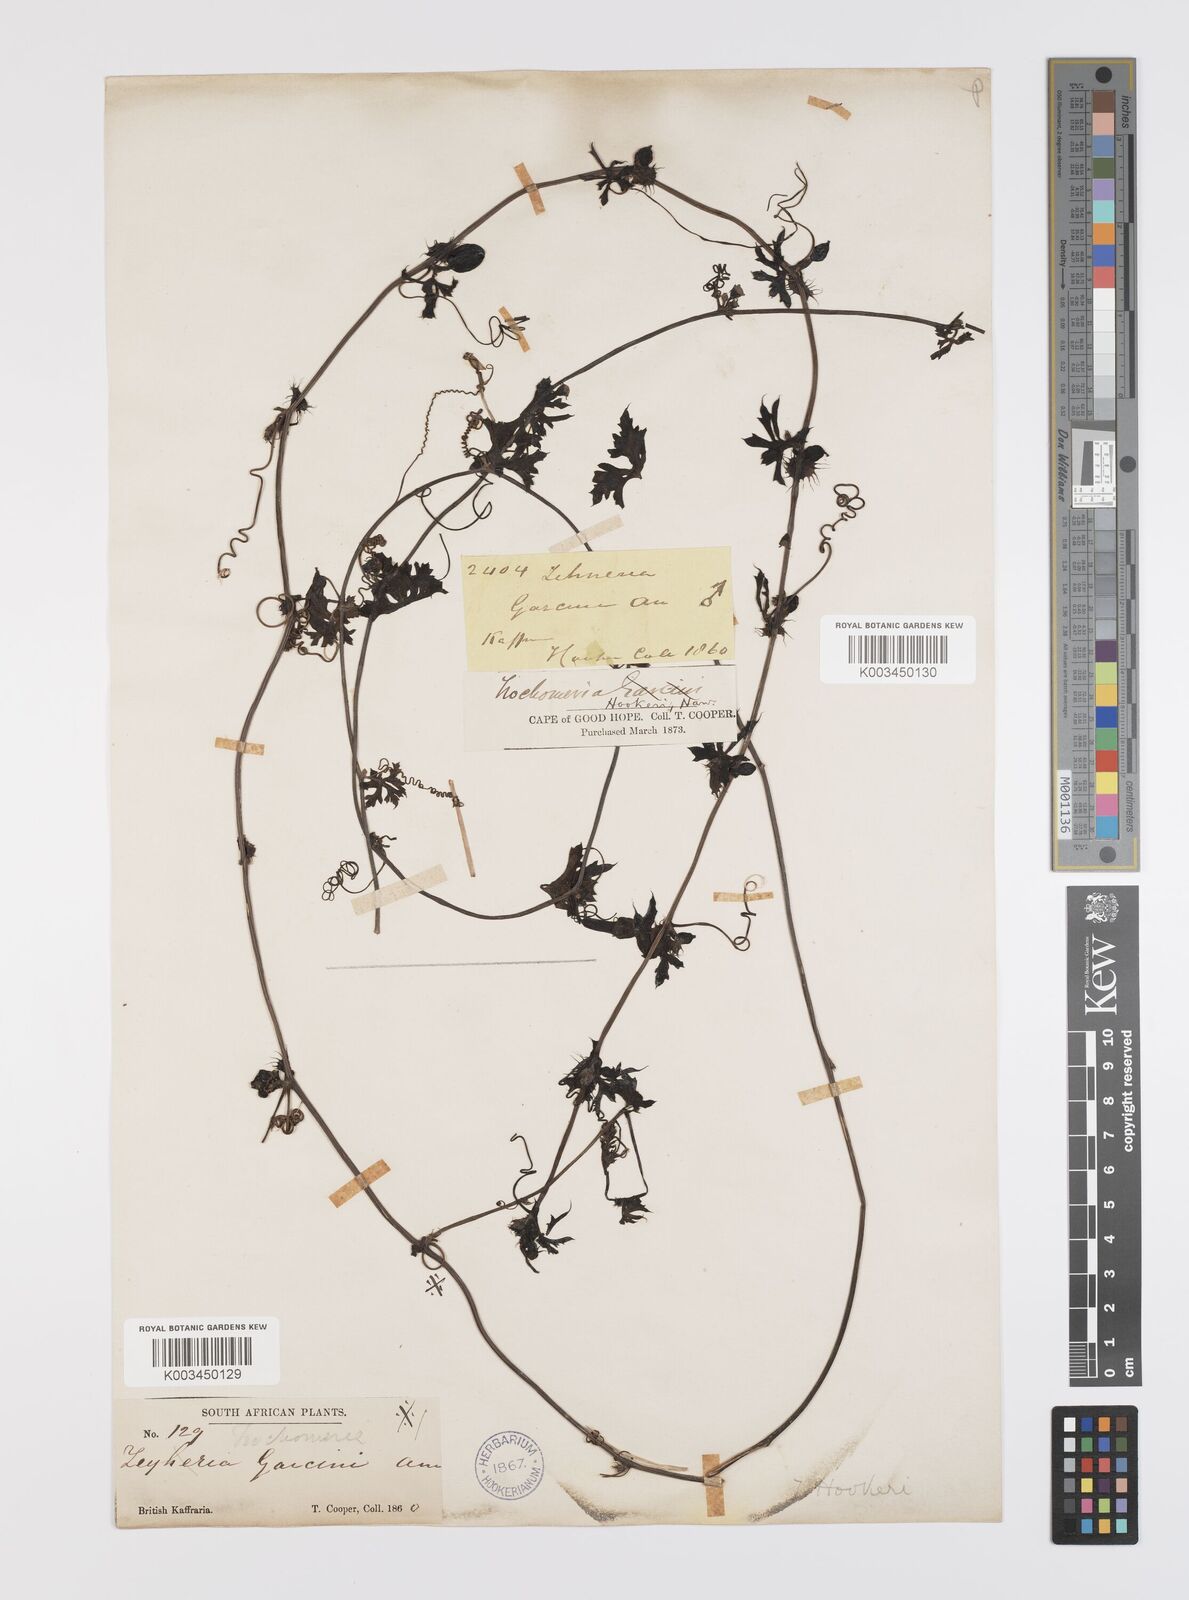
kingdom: Plantae
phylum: Tracheophyta
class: Magnoliopsida
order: Cucurbitales
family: Cucurbitaceae
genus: Trochomeria
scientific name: Trochomeria hookeri
